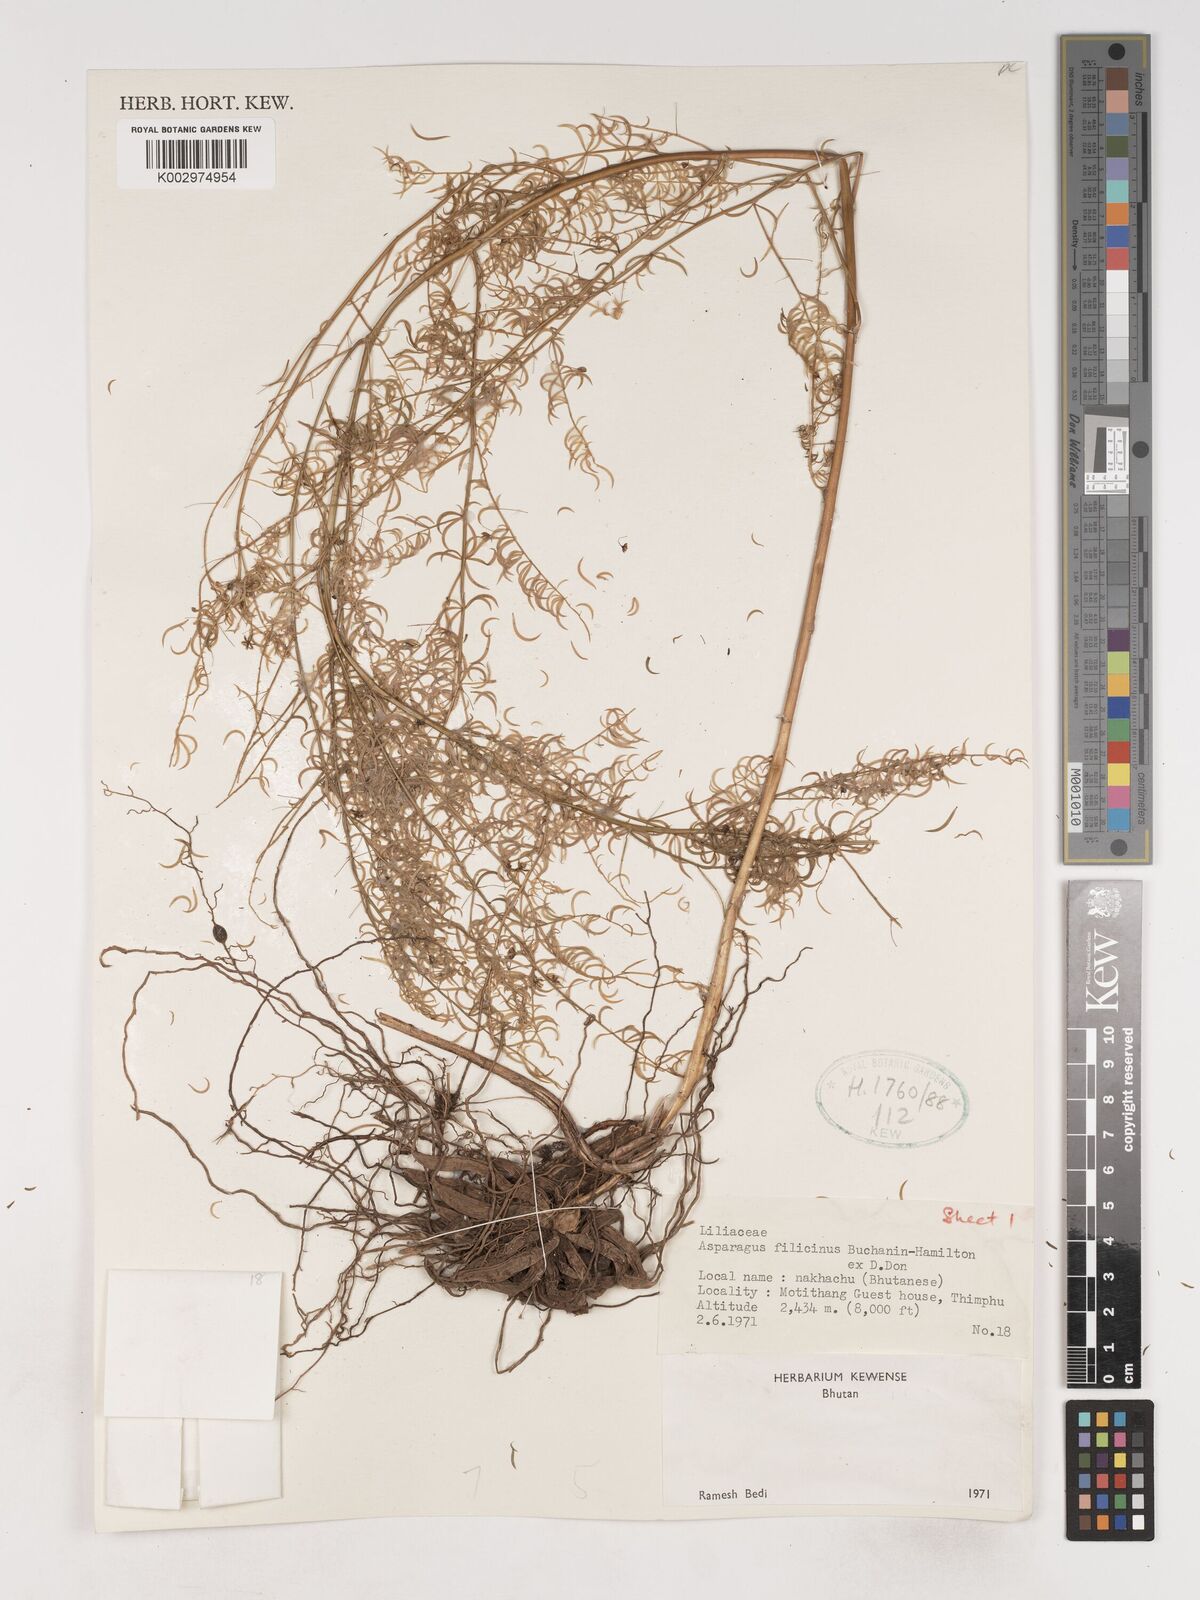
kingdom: Plantae
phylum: Tracheophyta
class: Liliopsida
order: Asparagales
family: Asparagaceae
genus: Asparagus
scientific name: Asparagus filicinus
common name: Fern asparagus
